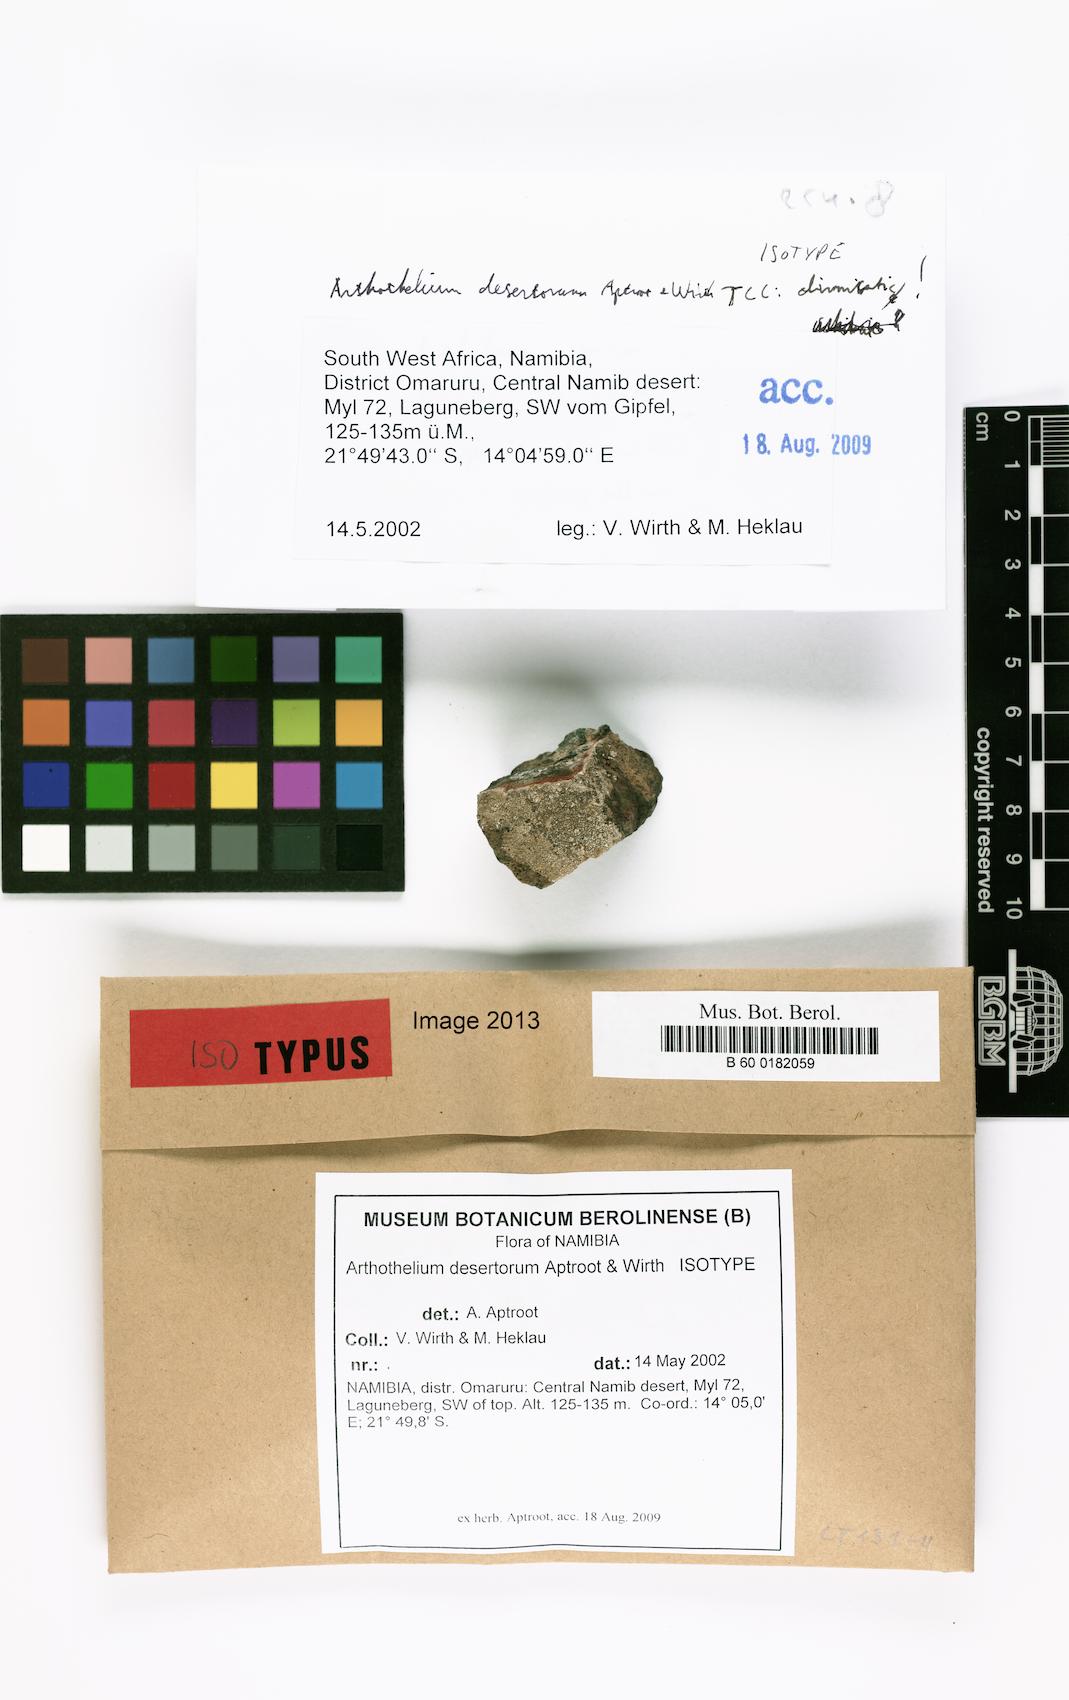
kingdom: Fungi
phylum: Ascomycota
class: Arthoniomycetes
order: Arthoniales
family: Arthoniaceae
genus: Arthothelium
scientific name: Arthothelium desertorum
